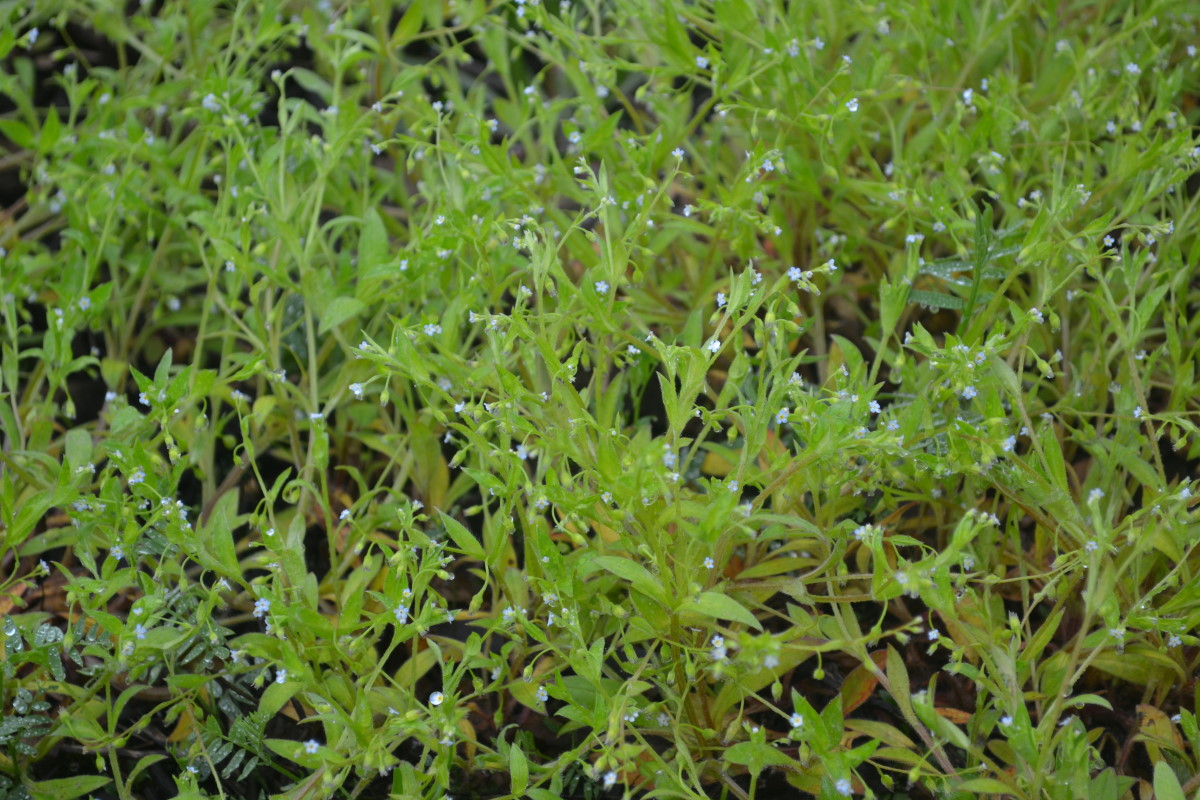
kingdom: Plantae
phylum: Tracheophyta
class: Magnoliopsida
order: Boraginales
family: Boraginaceae
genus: Myosotis
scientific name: Myosotis stricta
